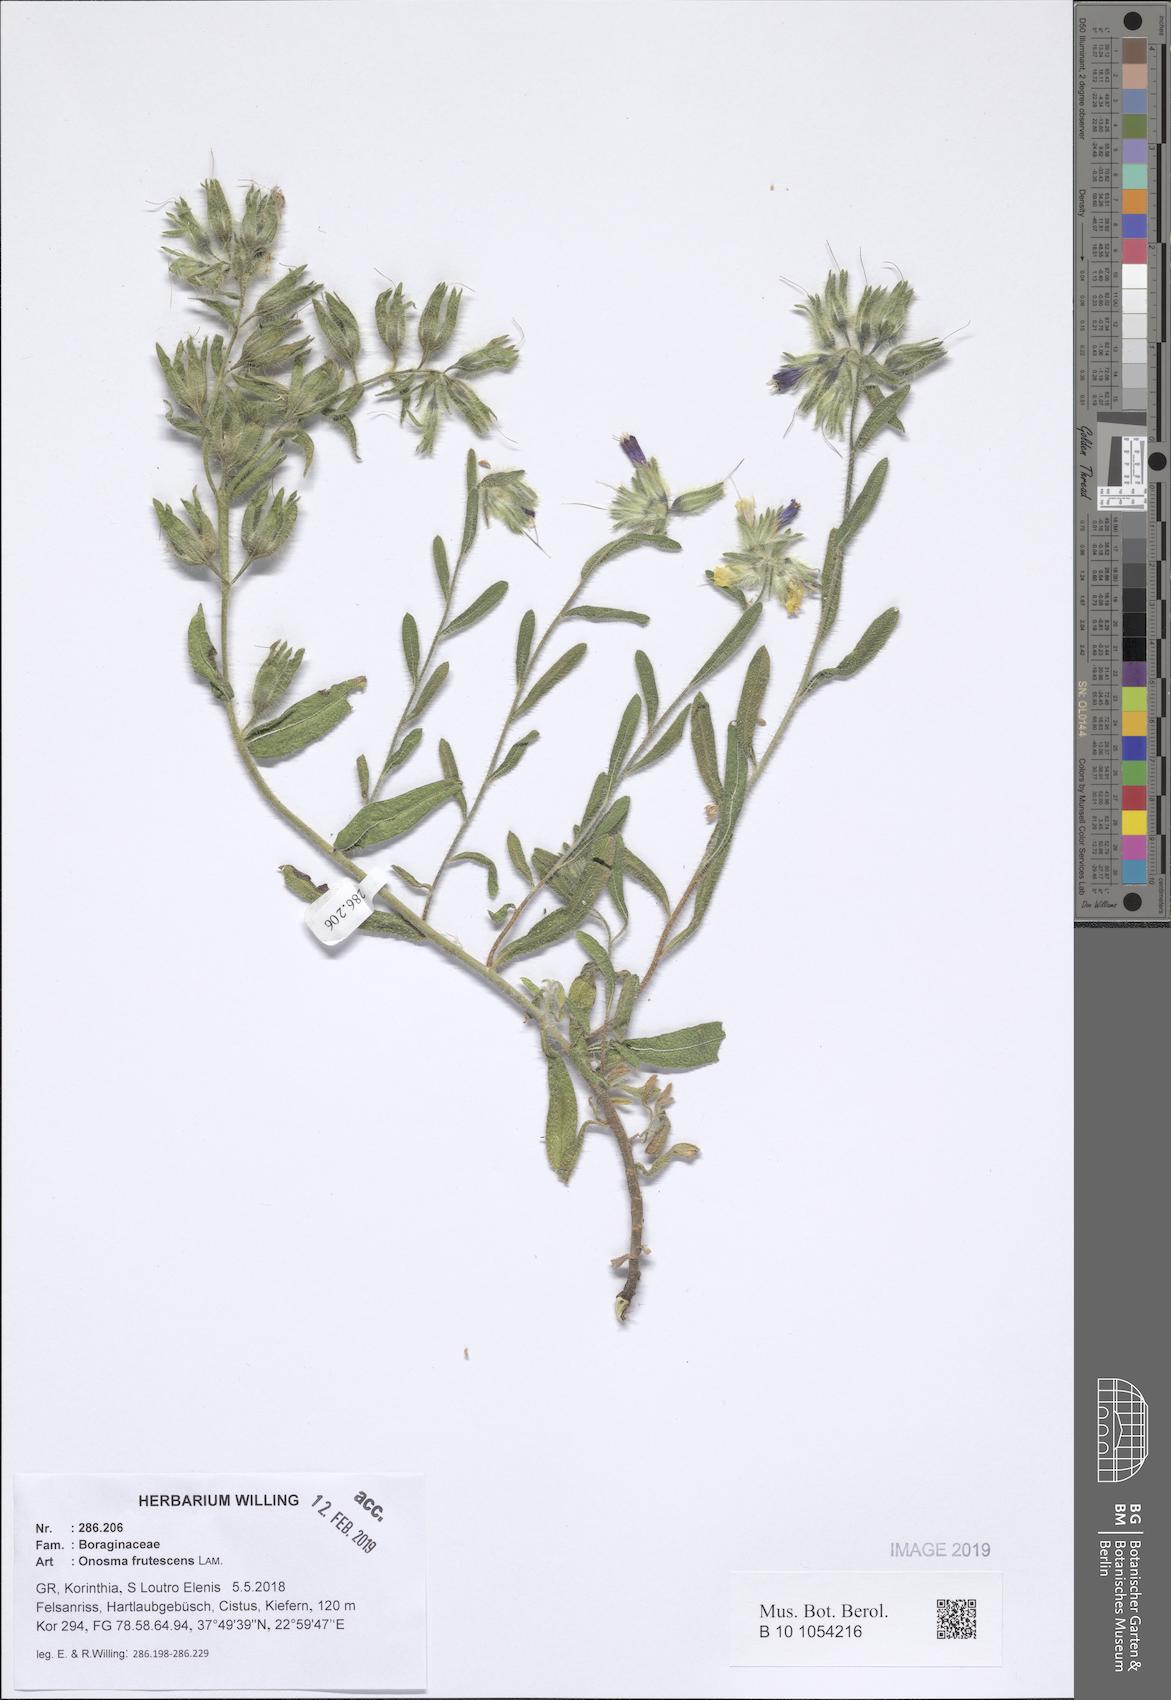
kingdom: Plantae
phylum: Tracheophyta
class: Magnoliopsida
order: Boraginales
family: Boraginaceae
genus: Onosma
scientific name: Onosma frutescens
